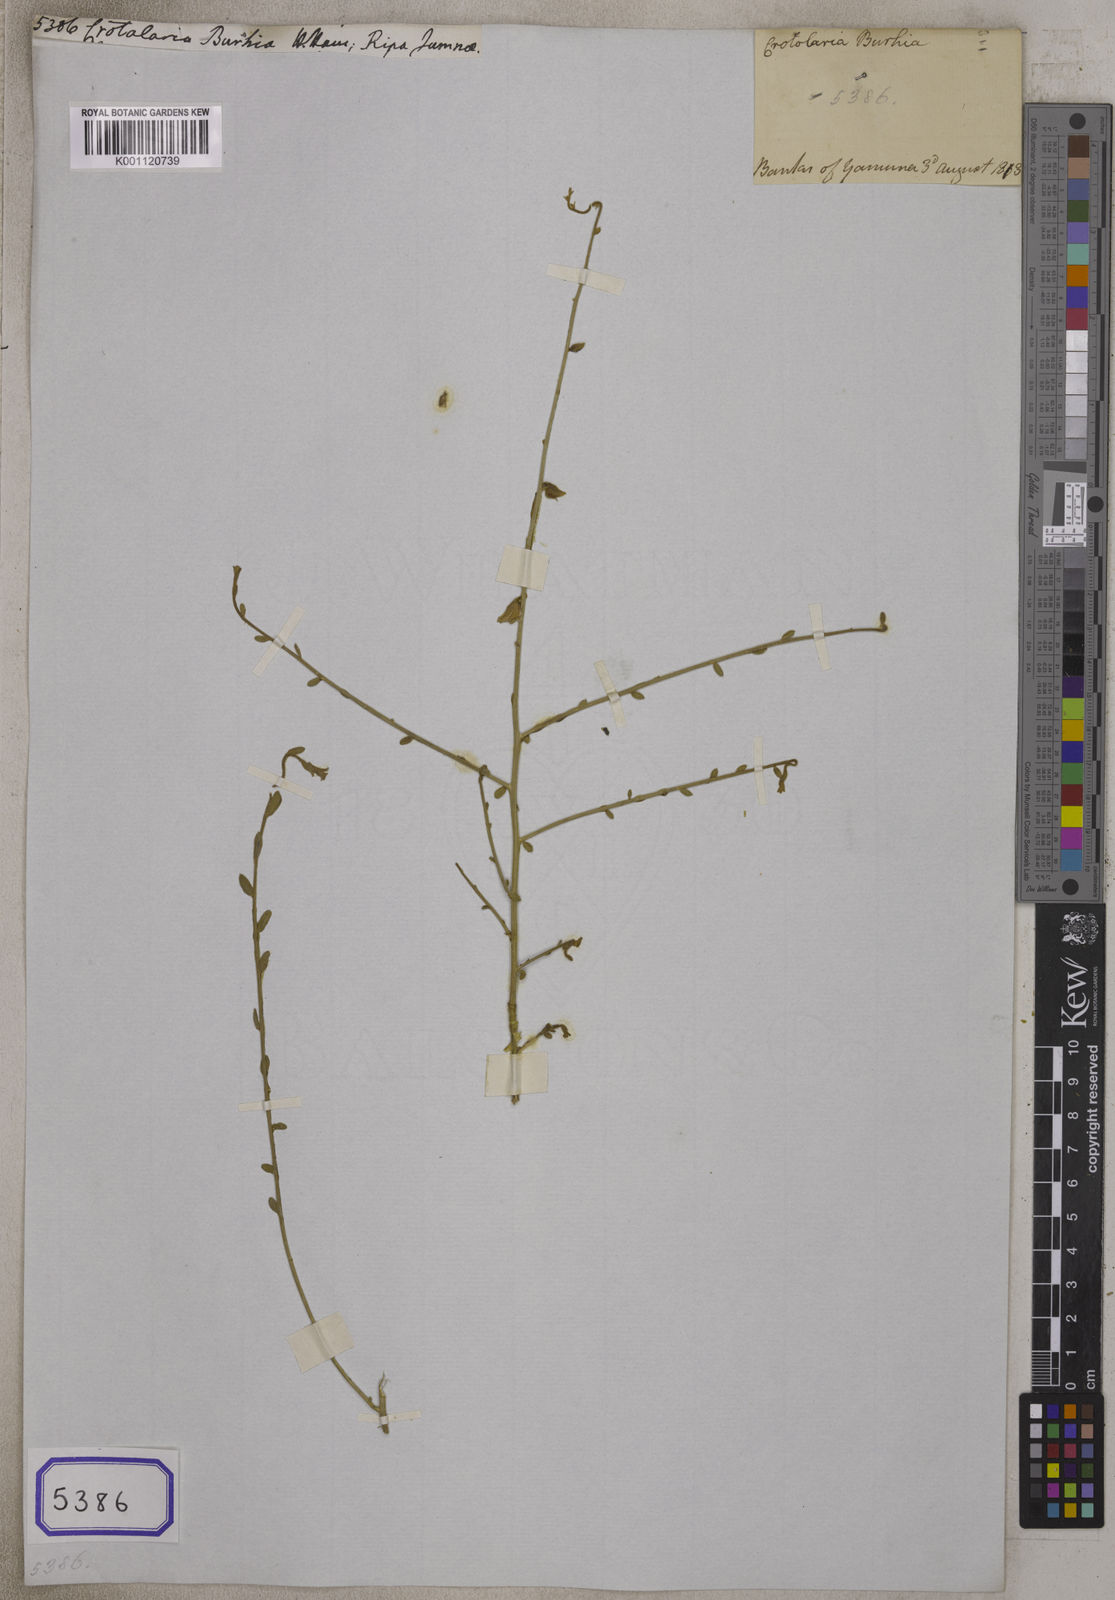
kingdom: Plantae
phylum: Tracheophyta
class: Magnoliopsida
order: Fabales
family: Fabaceae
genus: Crotalaria
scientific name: Crotalaria
